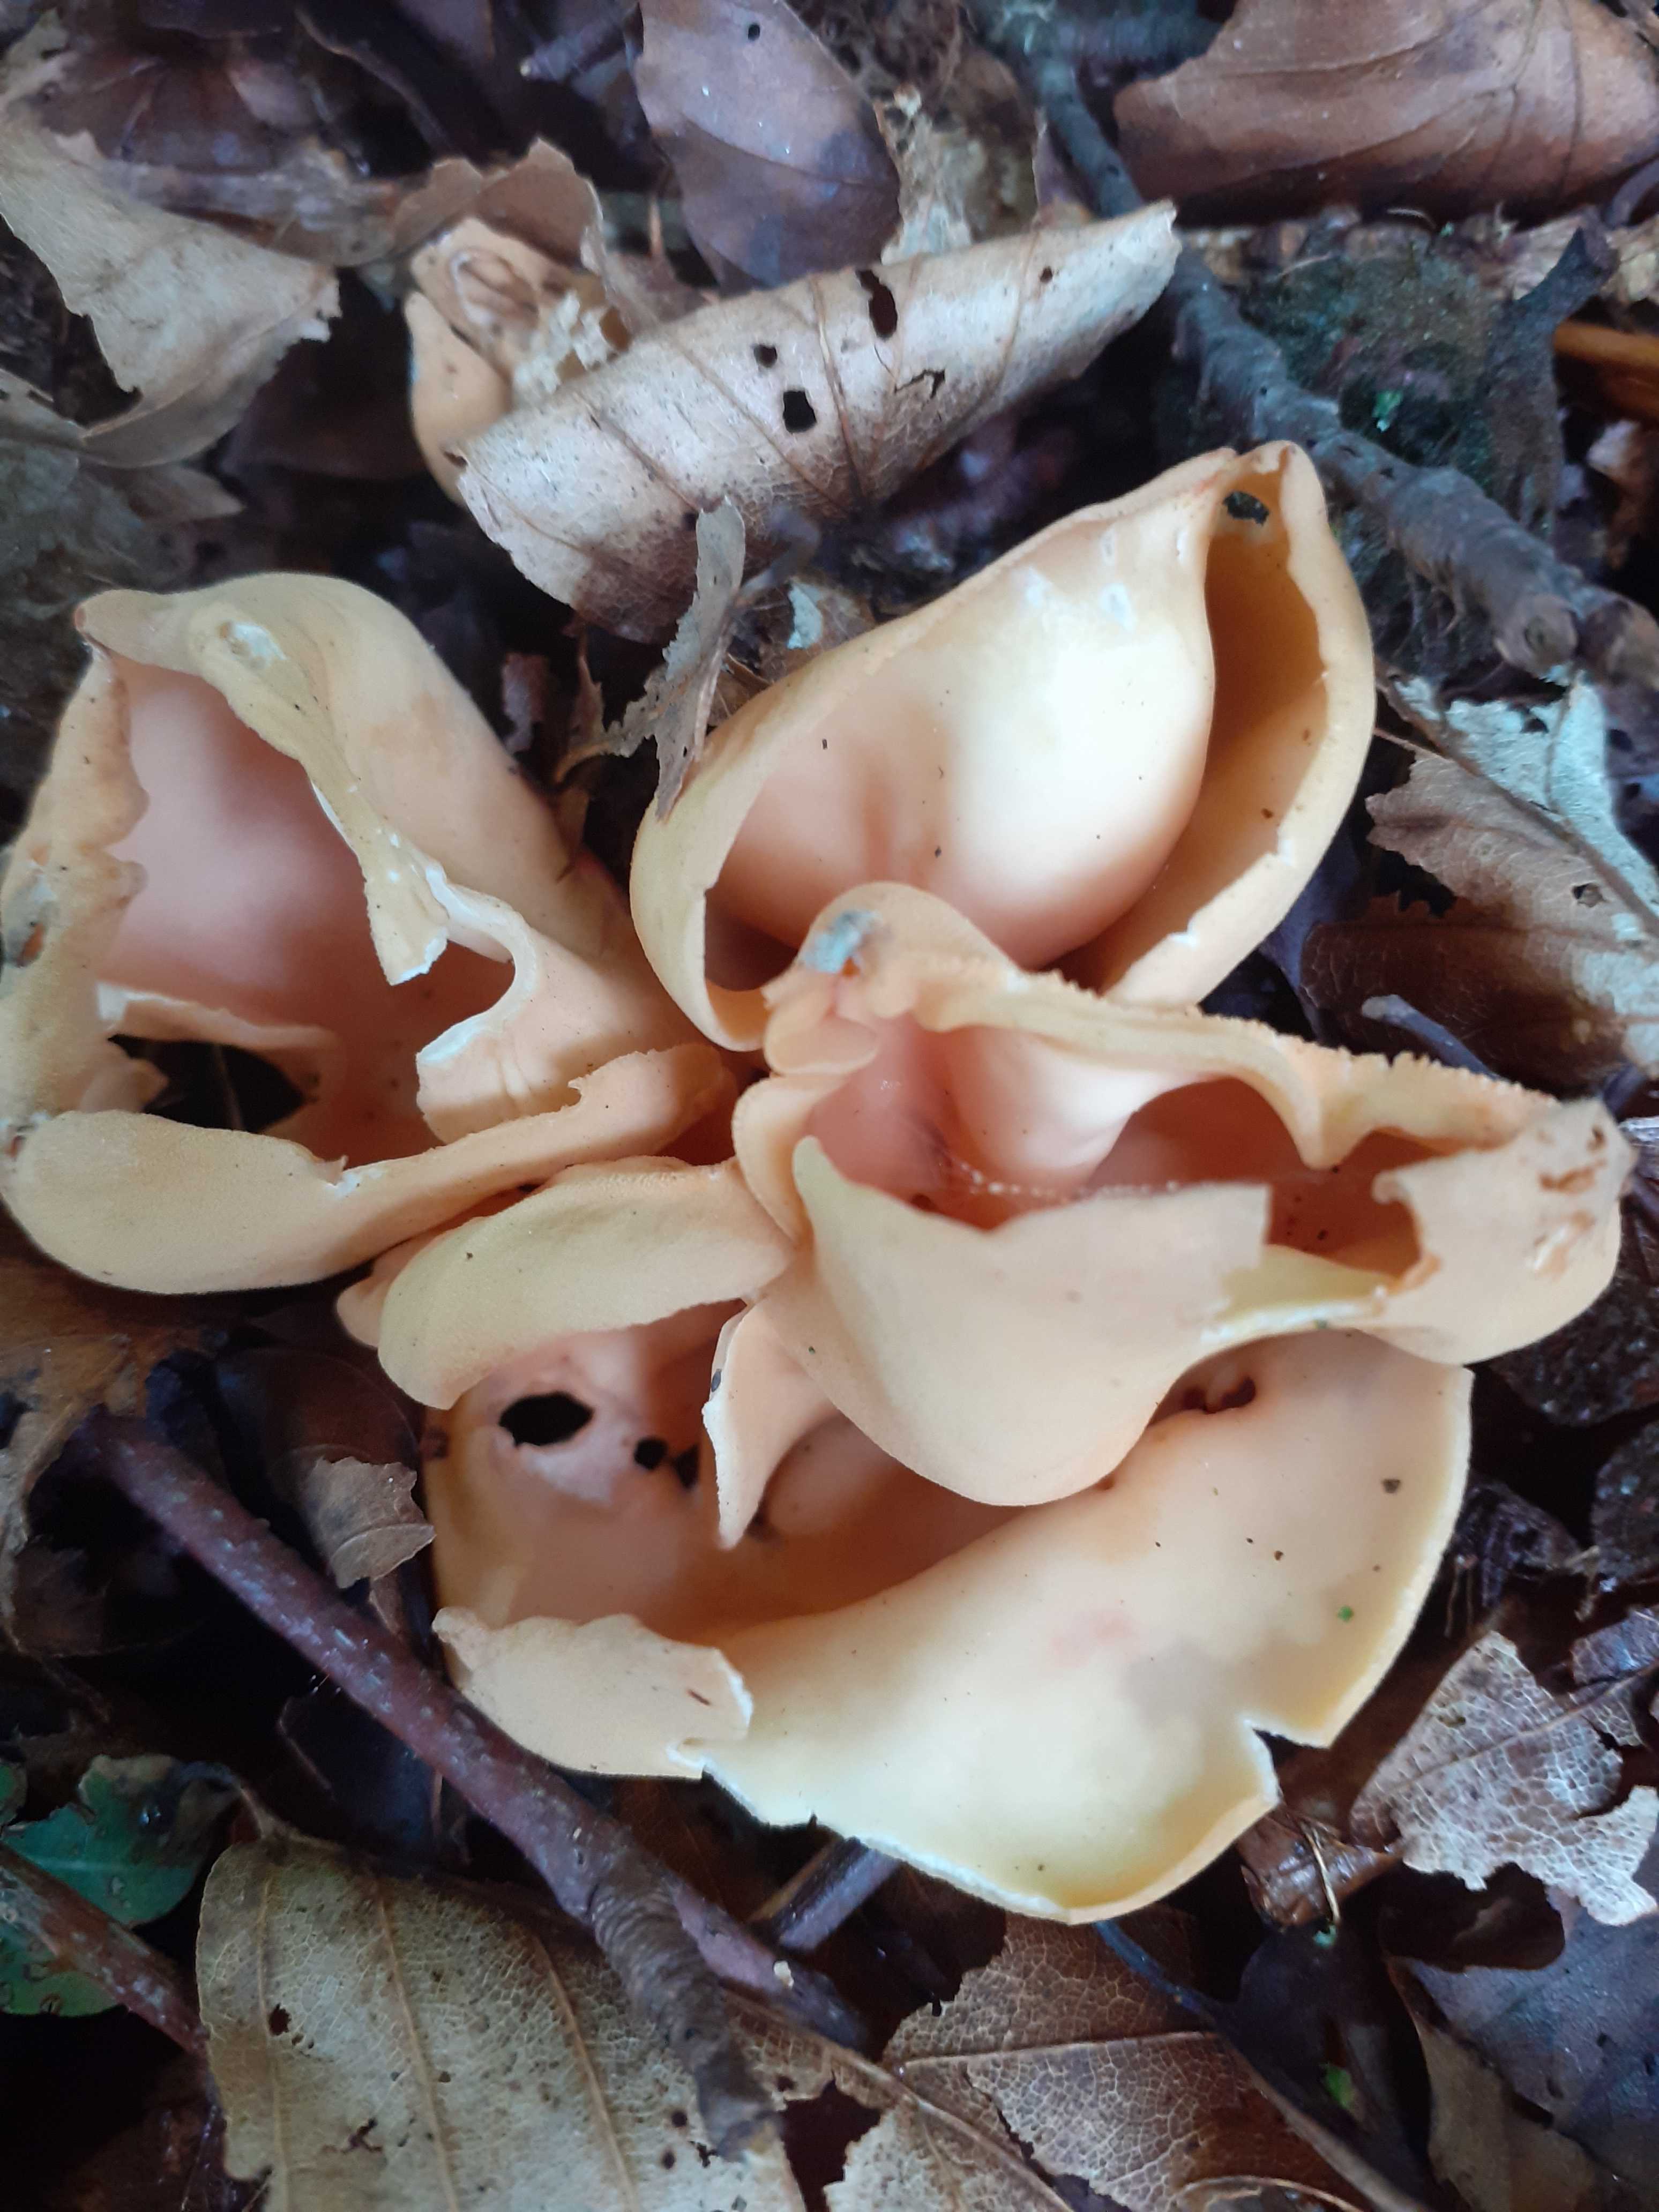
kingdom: Fungi
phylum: Ascomycota
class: Pezizomycetes
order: Pezizales
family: Otideaceae
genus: Otidea
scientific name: Otidea onotica
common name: æsel-ørebæger
